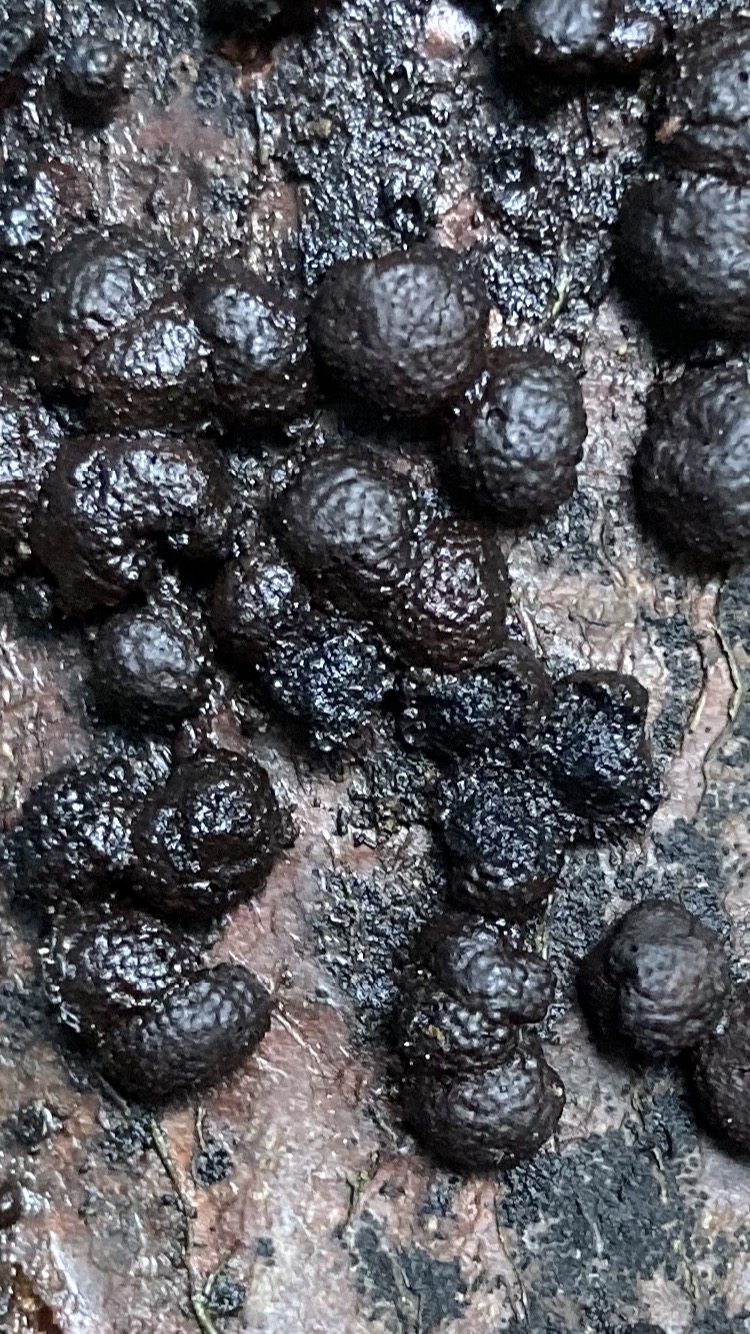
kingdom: Fungi
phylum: Ascomycota
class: Sordariomycetes
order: Xylariales
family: Hypoxylaceae
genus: Hypoxylon
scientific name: Hypoxylon fragiforme
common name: kuljordbær
